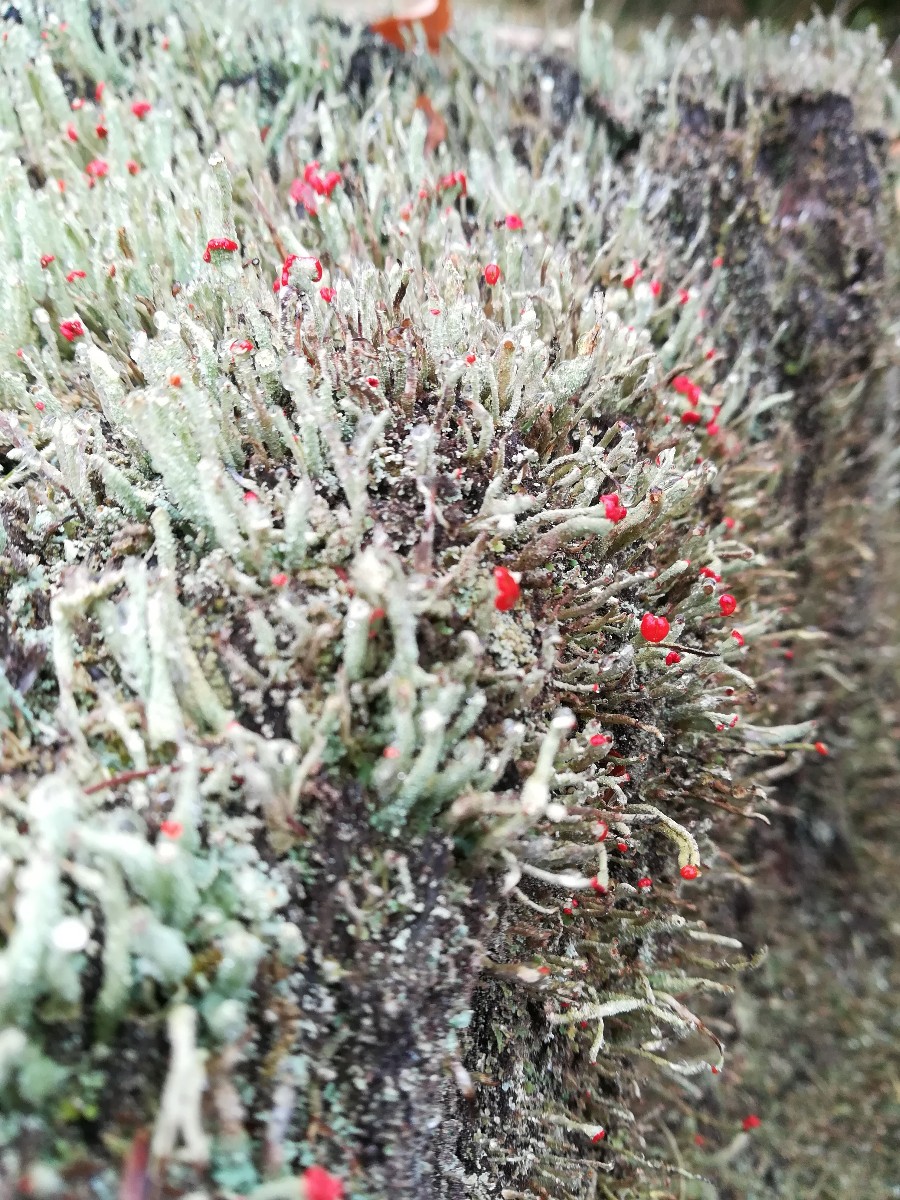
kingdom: Fungi
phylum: Ascomycota
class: Lecanoromycetes
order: Lecanorales
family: Cladoniaceae
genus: Cladonia
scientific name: Cladonia floerkeana
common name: lakrød bægerlav
